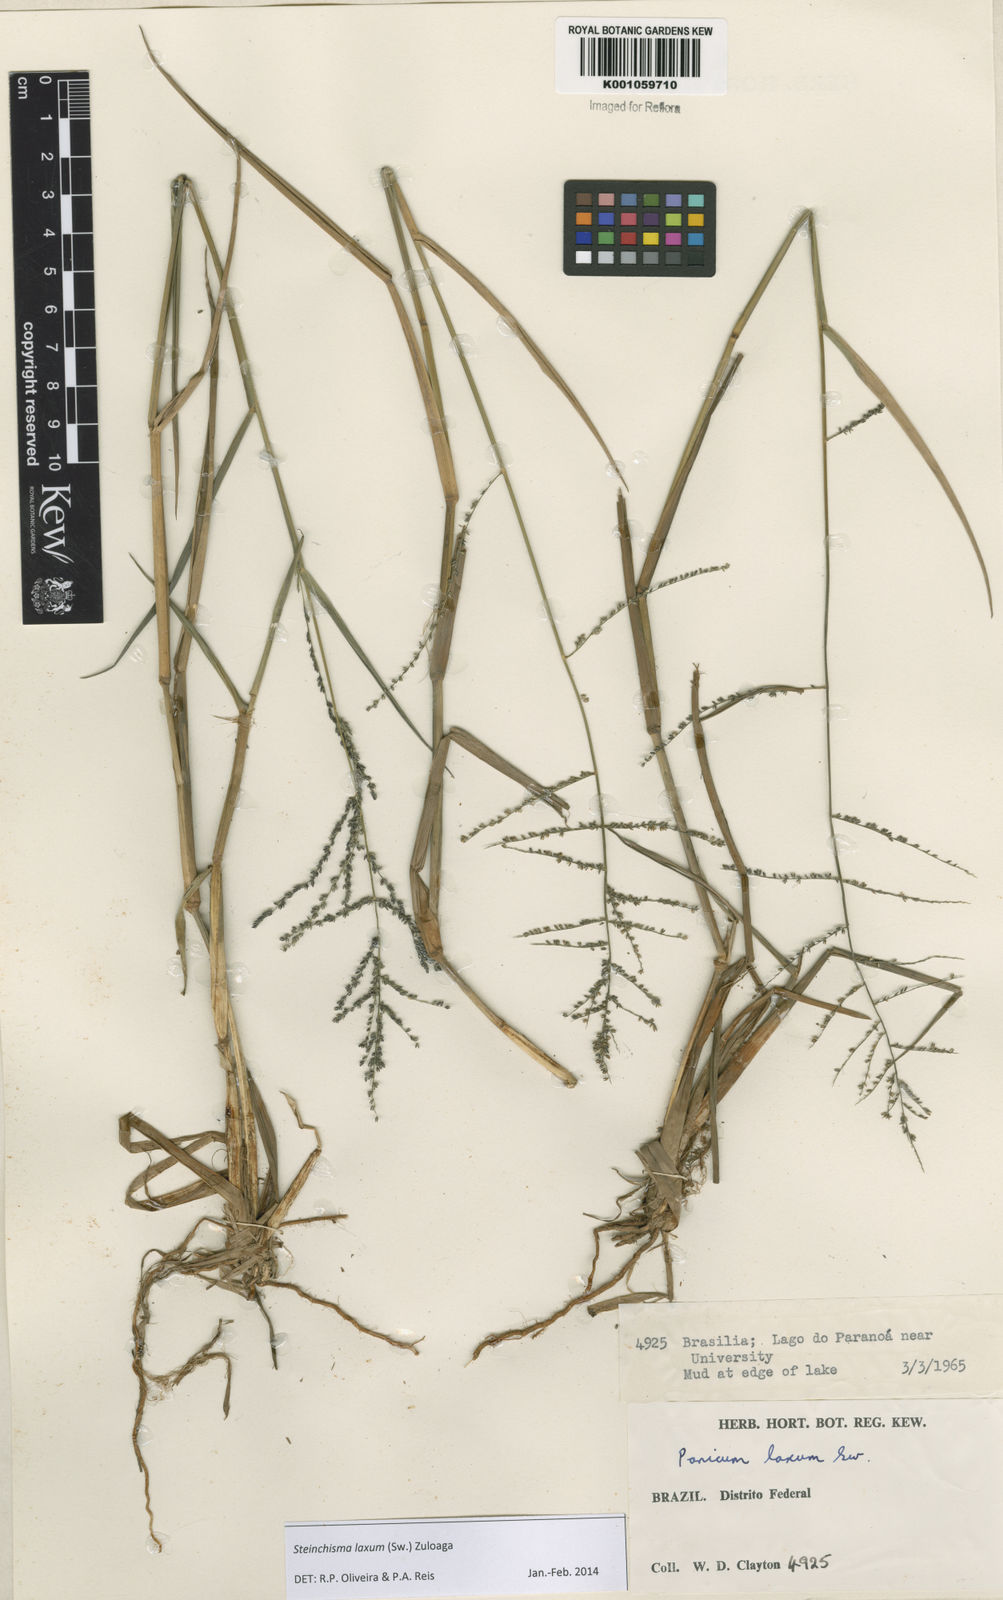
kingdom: Plantae
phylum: Tracheophyta
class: Liliopsida
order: Poales
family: Poaceae
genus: Steinchisma
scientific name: Steinchisma laxum
